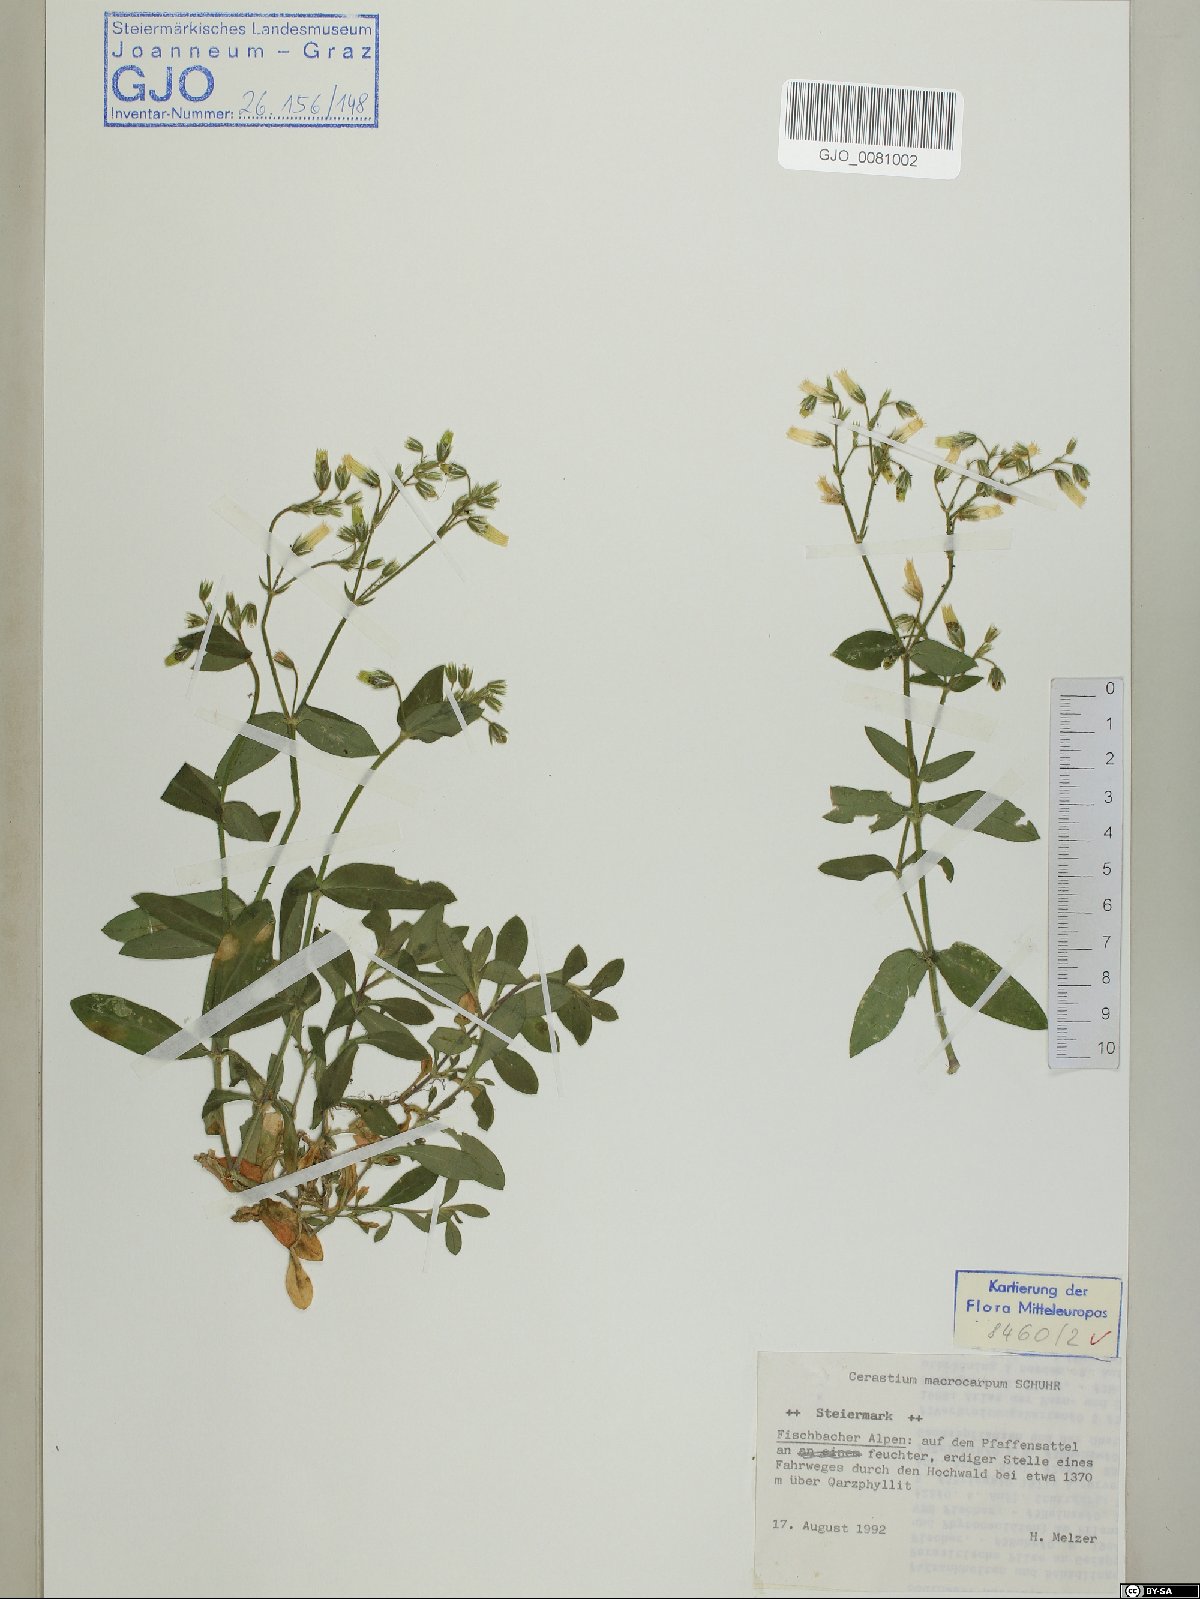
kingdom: Plantae
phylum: Tracheophyta
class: Magnoliopsida
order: Caryophyllales
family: Caryophyllaceae
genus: Cerastium
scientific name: Cerastium lucorum
